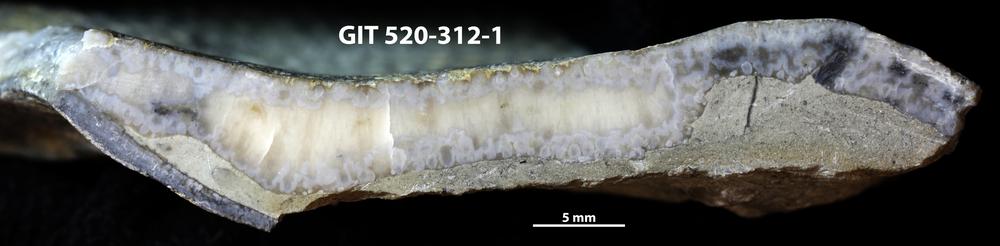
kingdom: Animalia
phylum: Sipuncula
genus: Trypanites
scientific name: Trypanites
